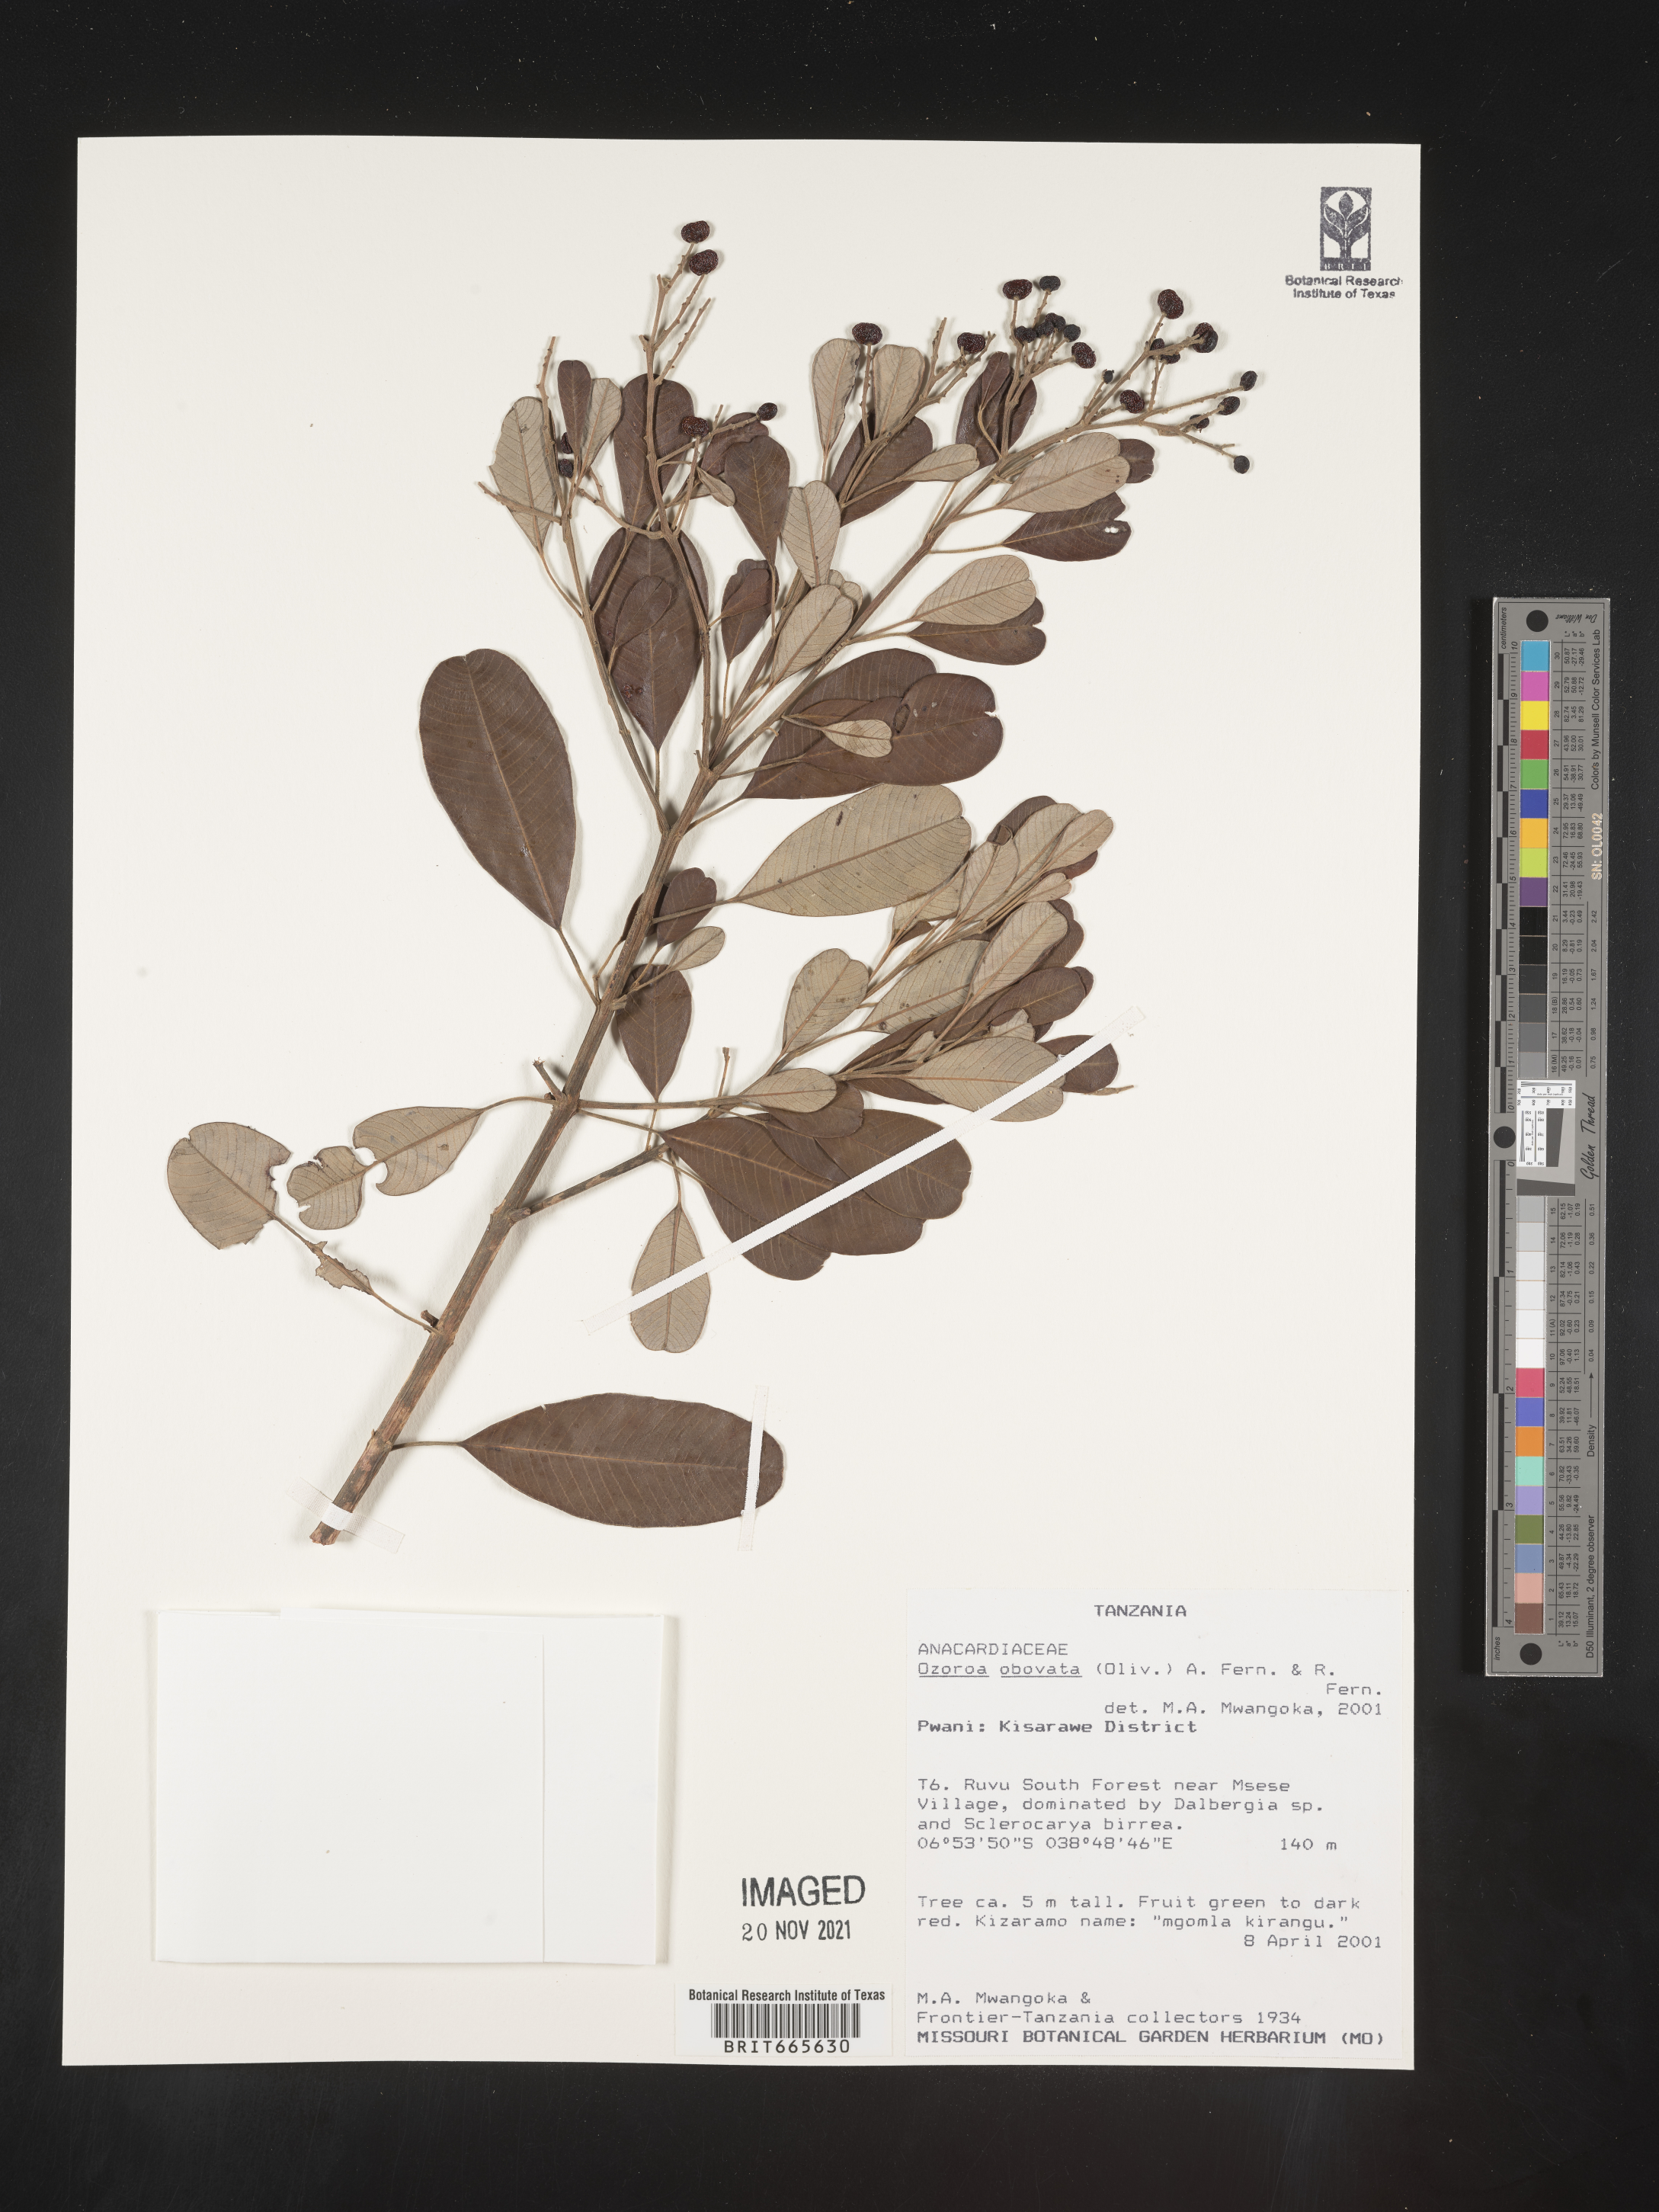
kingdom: Plantae
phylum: Tracheophyta
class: Magnoliopsida
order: Sapindales
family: Anacardiaceae
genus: Ozoroa
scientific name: Ozoroa
